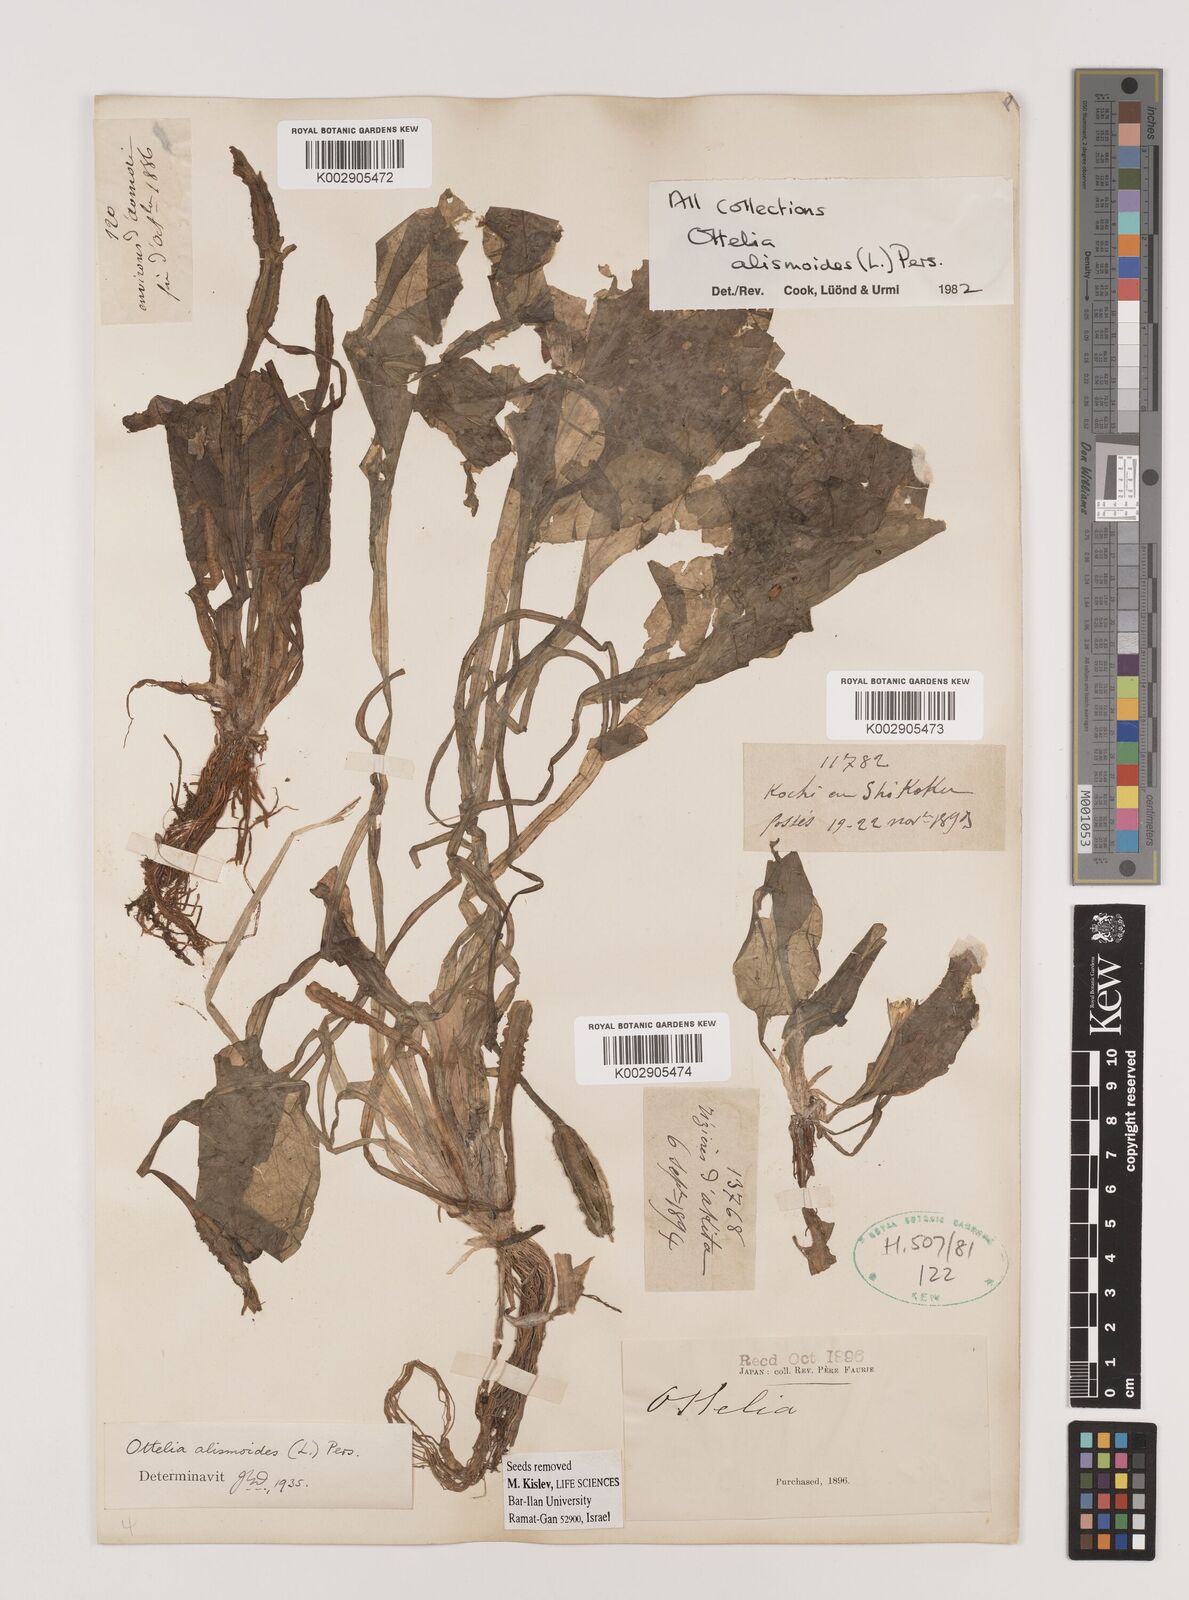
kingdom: Plantae
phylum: Tracheophyta
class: Liliopsida
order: Alismatales
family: Hydrocharitaceae
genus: Ottelia
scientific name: Ottelia alismoides
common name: Duck-lettuce
